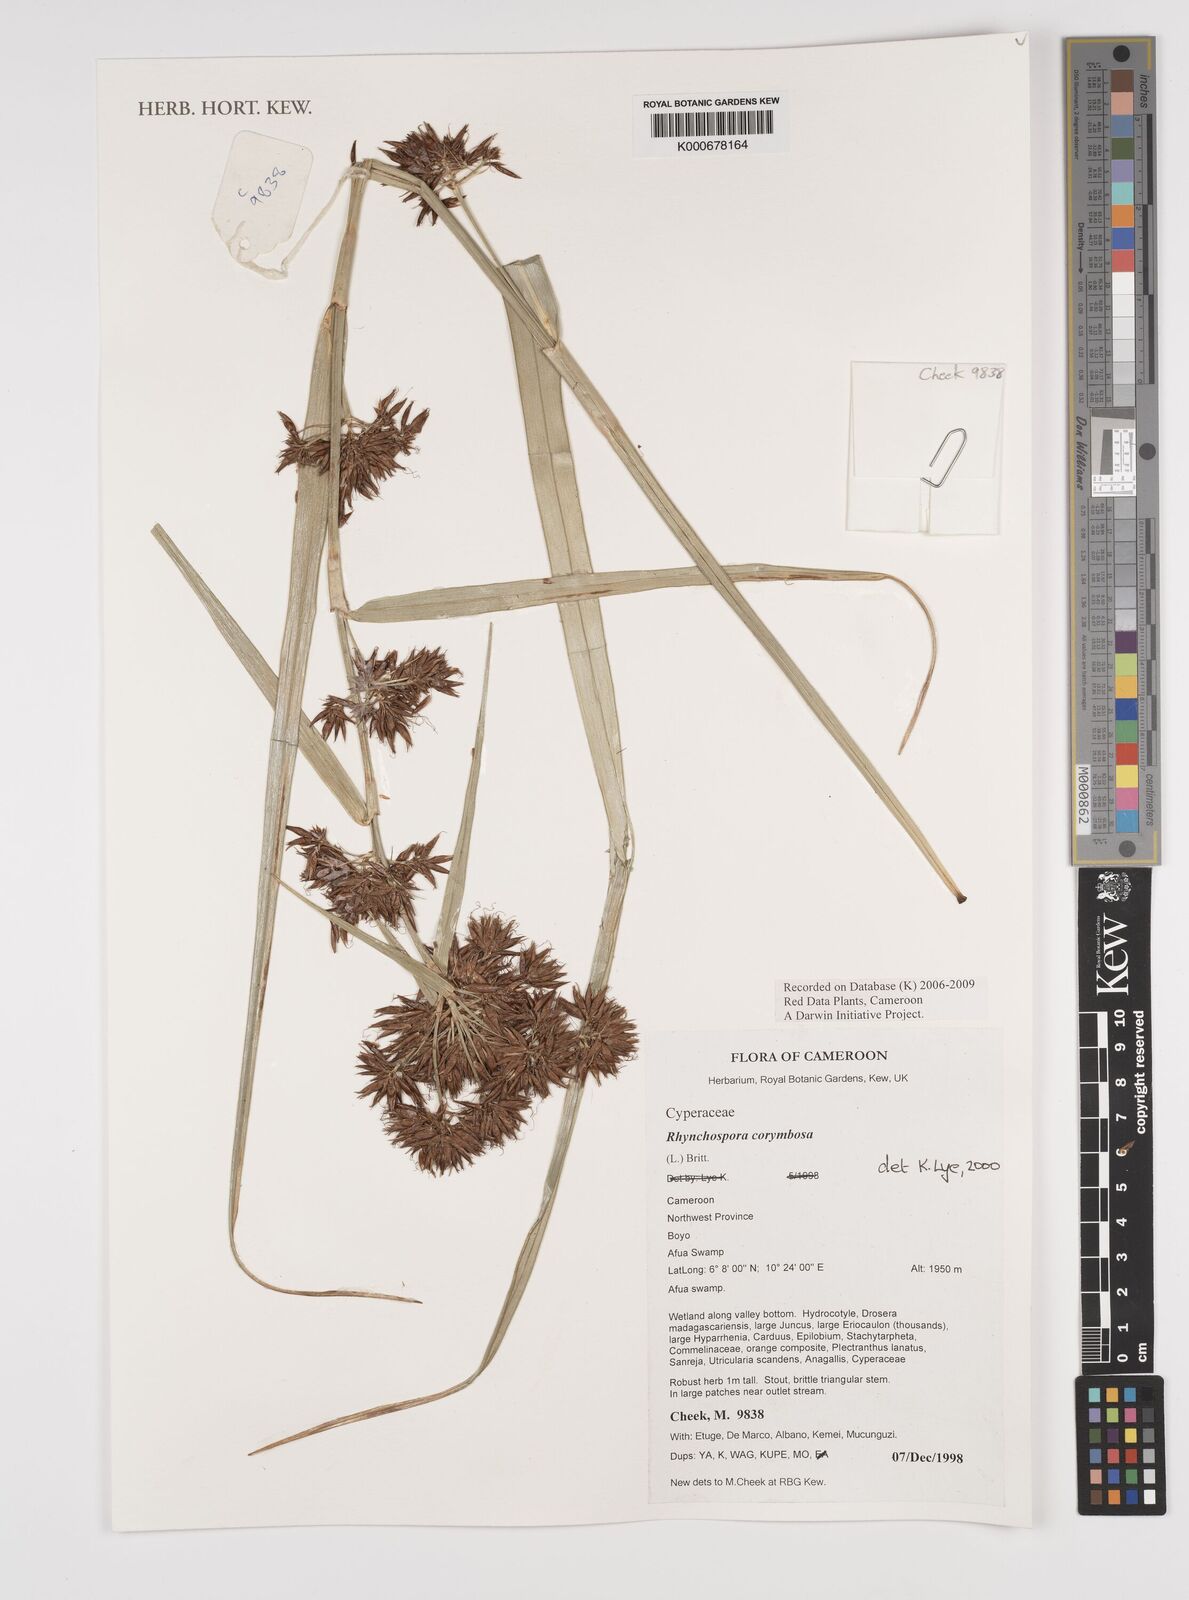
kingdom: Plantae
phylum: Tracheophyta
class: Liliopsida
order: Poales
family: Cyperaceae
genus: Rhynchospora
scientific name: Rhynchospora corymbosa
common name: Golden beak sedge
